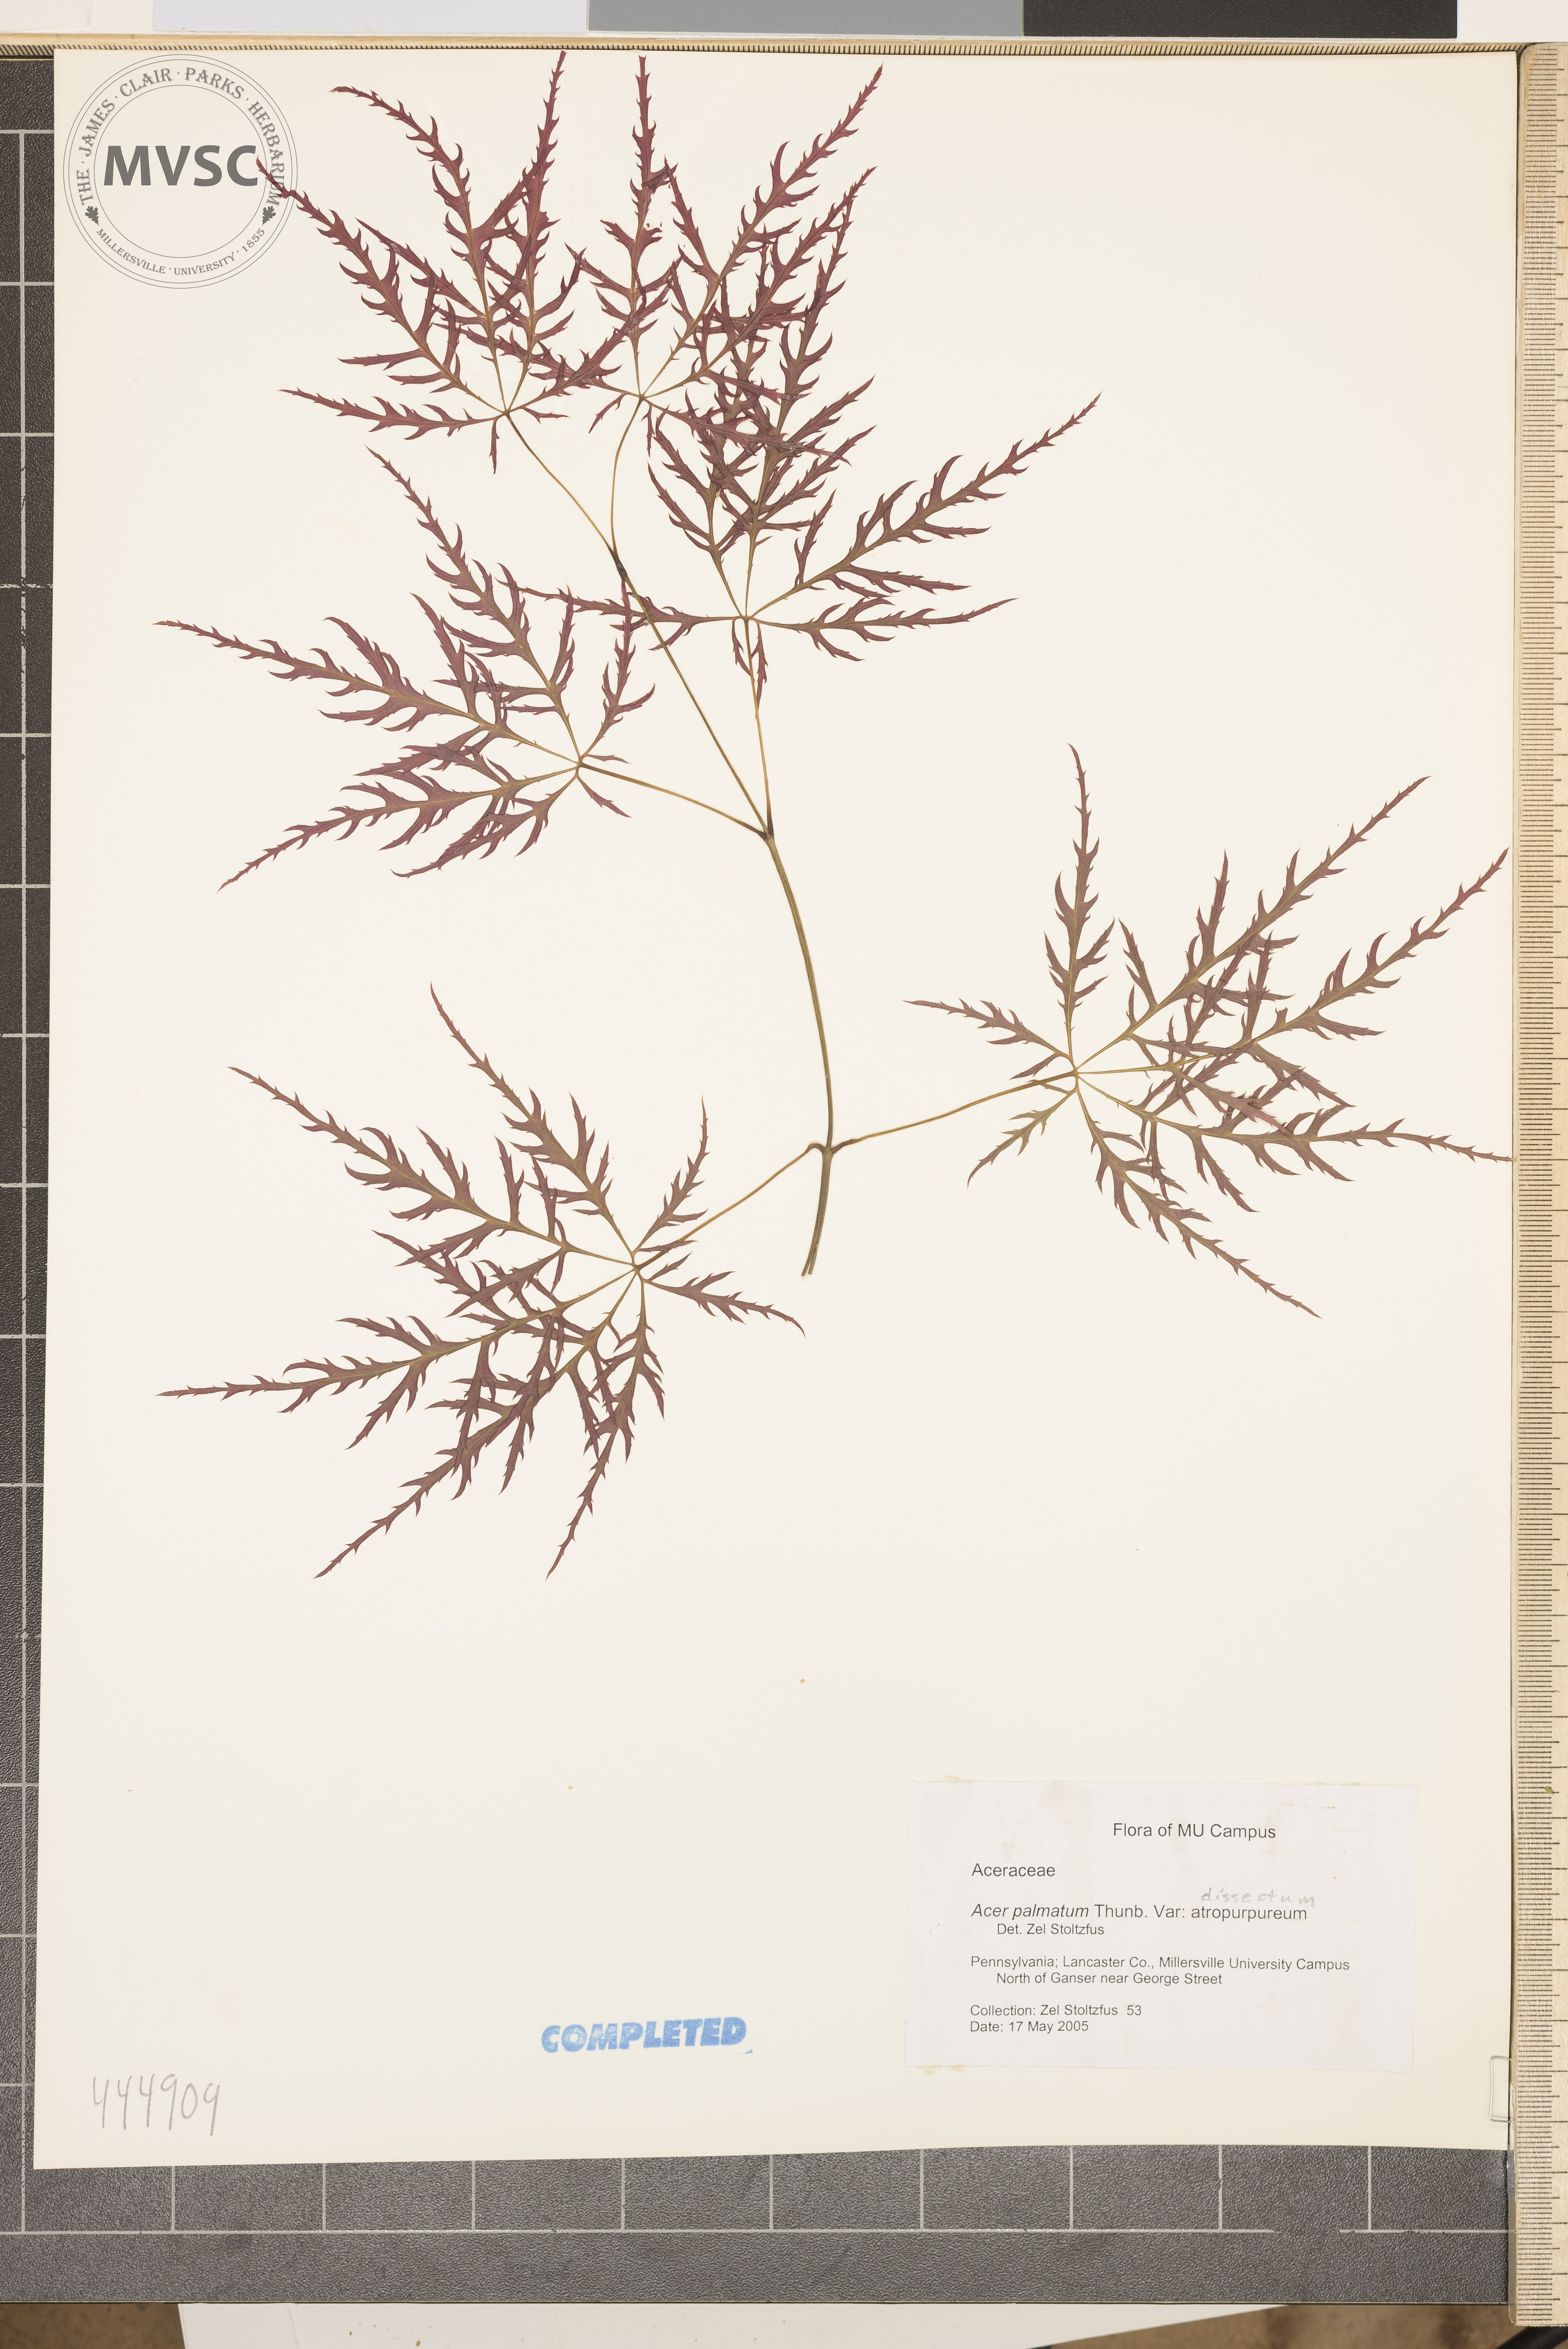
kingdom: Plantae
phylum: Tracheophyta
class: Magnoliopsida
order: Sapindales
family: Sapindaceae
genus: Acer
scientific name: Acer palmatum
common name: Japanese maple
